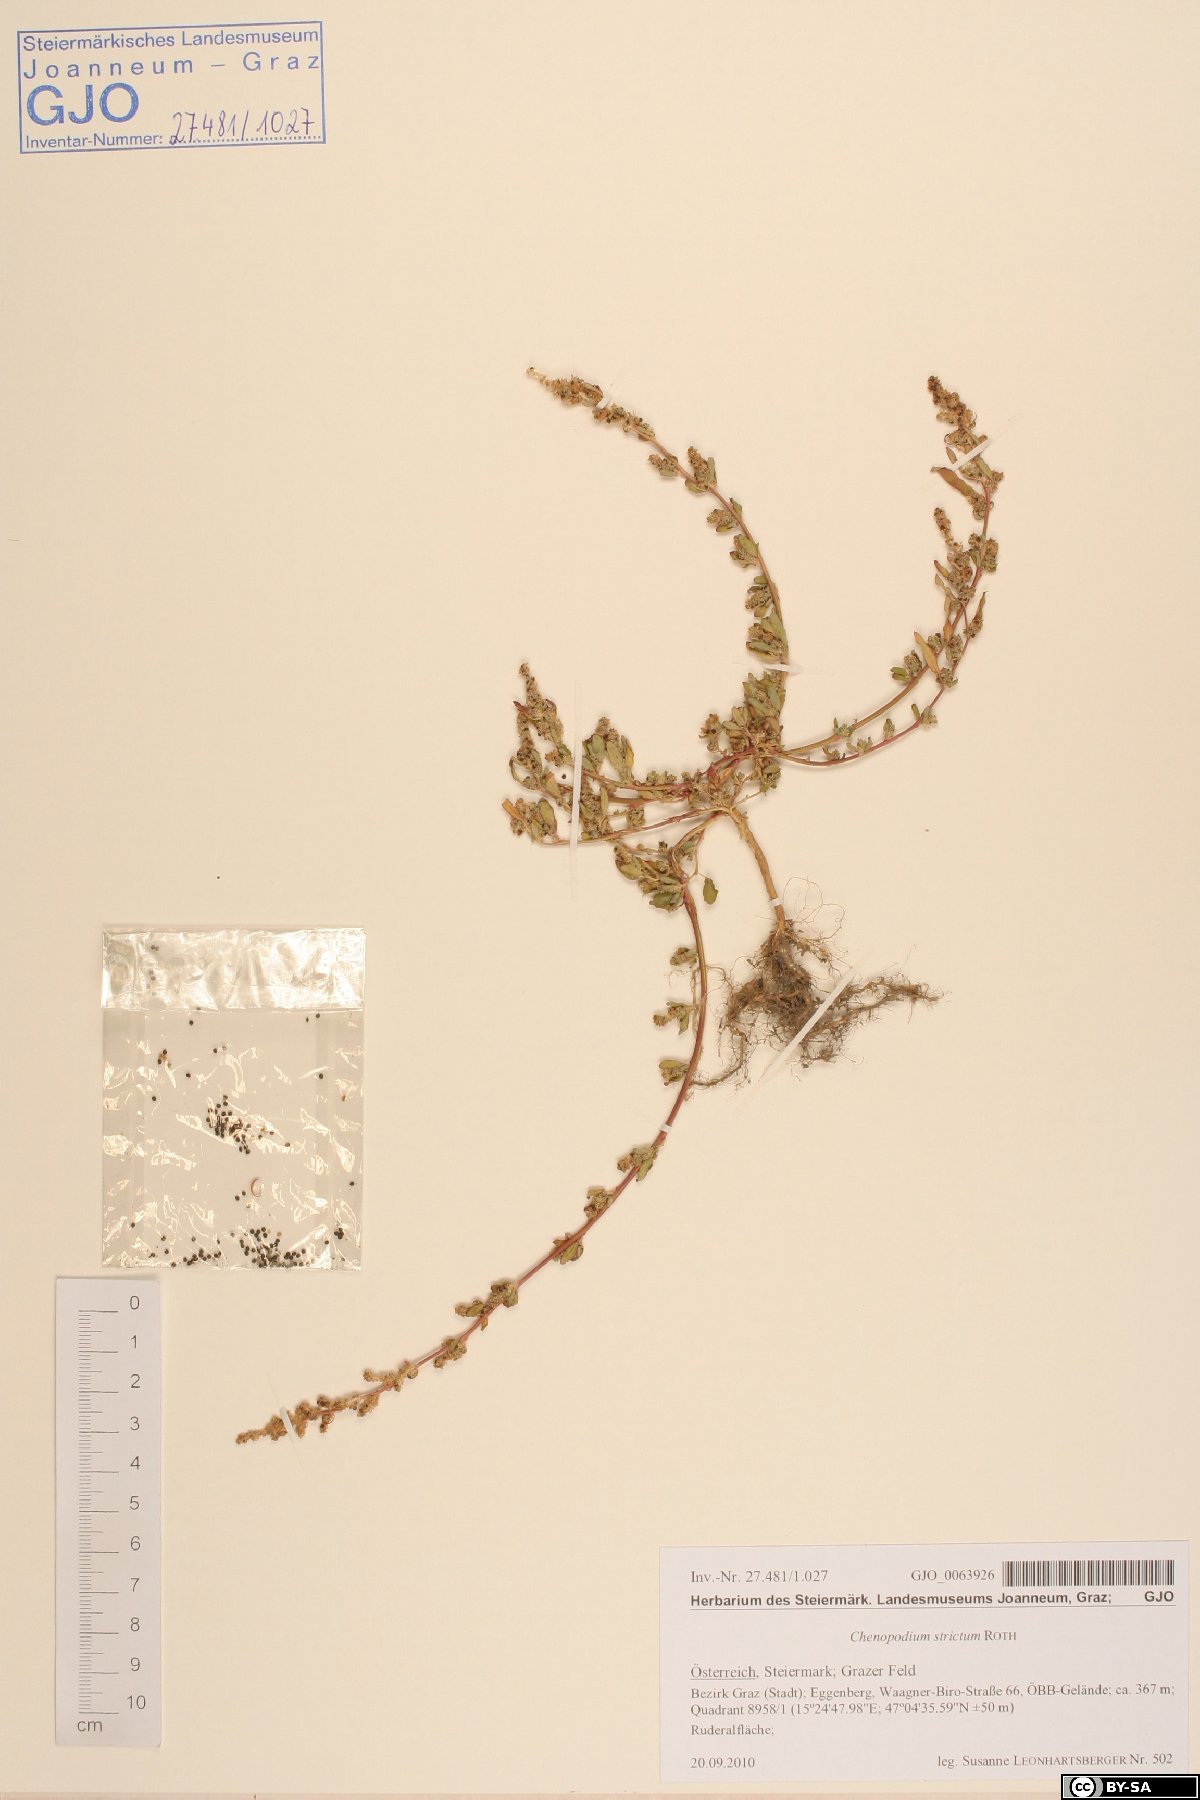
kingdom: Plantae
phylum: Tracheophyta
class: Magnoliopsida
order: Caryophyllales
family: Amaranthaceae
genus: Chenopodium
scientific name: Chenopodium album
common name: Fat-hen
